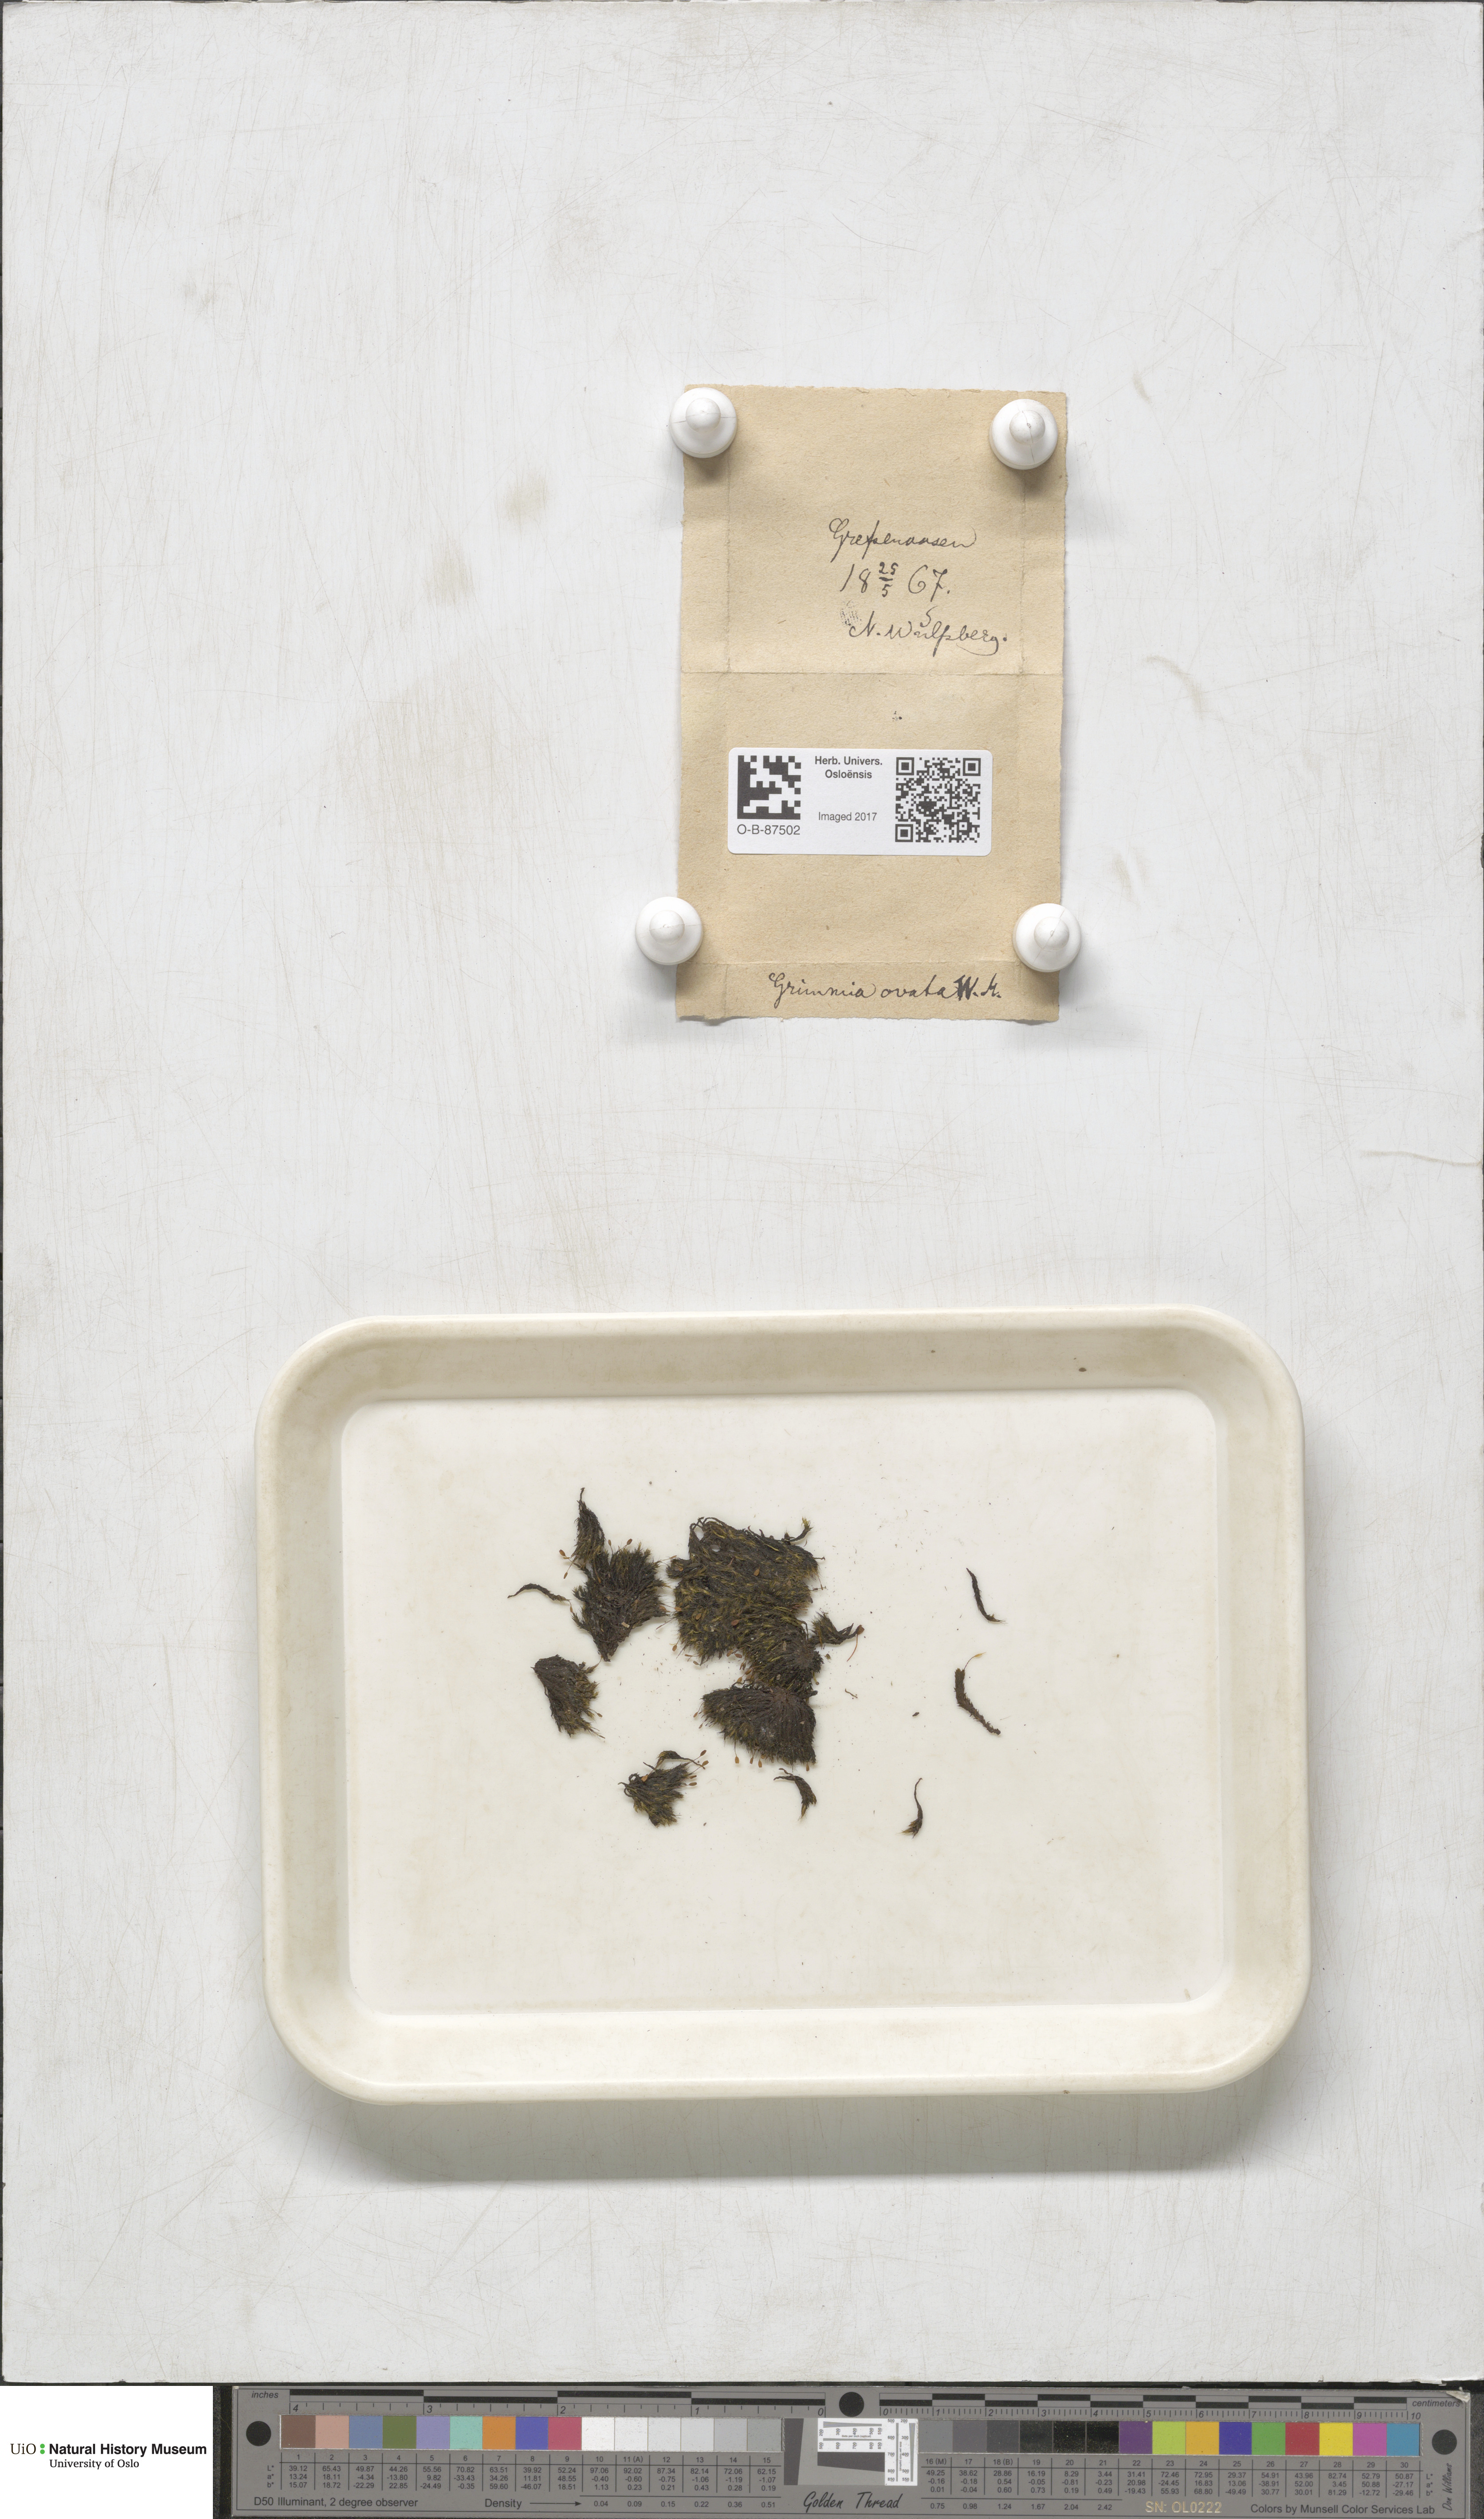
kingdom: Plantae
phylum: Bryophyta
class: Bryopsida
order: Grimmiales
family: Grimmiaceae
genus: Grimmia
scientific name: Grimmia ovalis
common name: Oval grimmia
